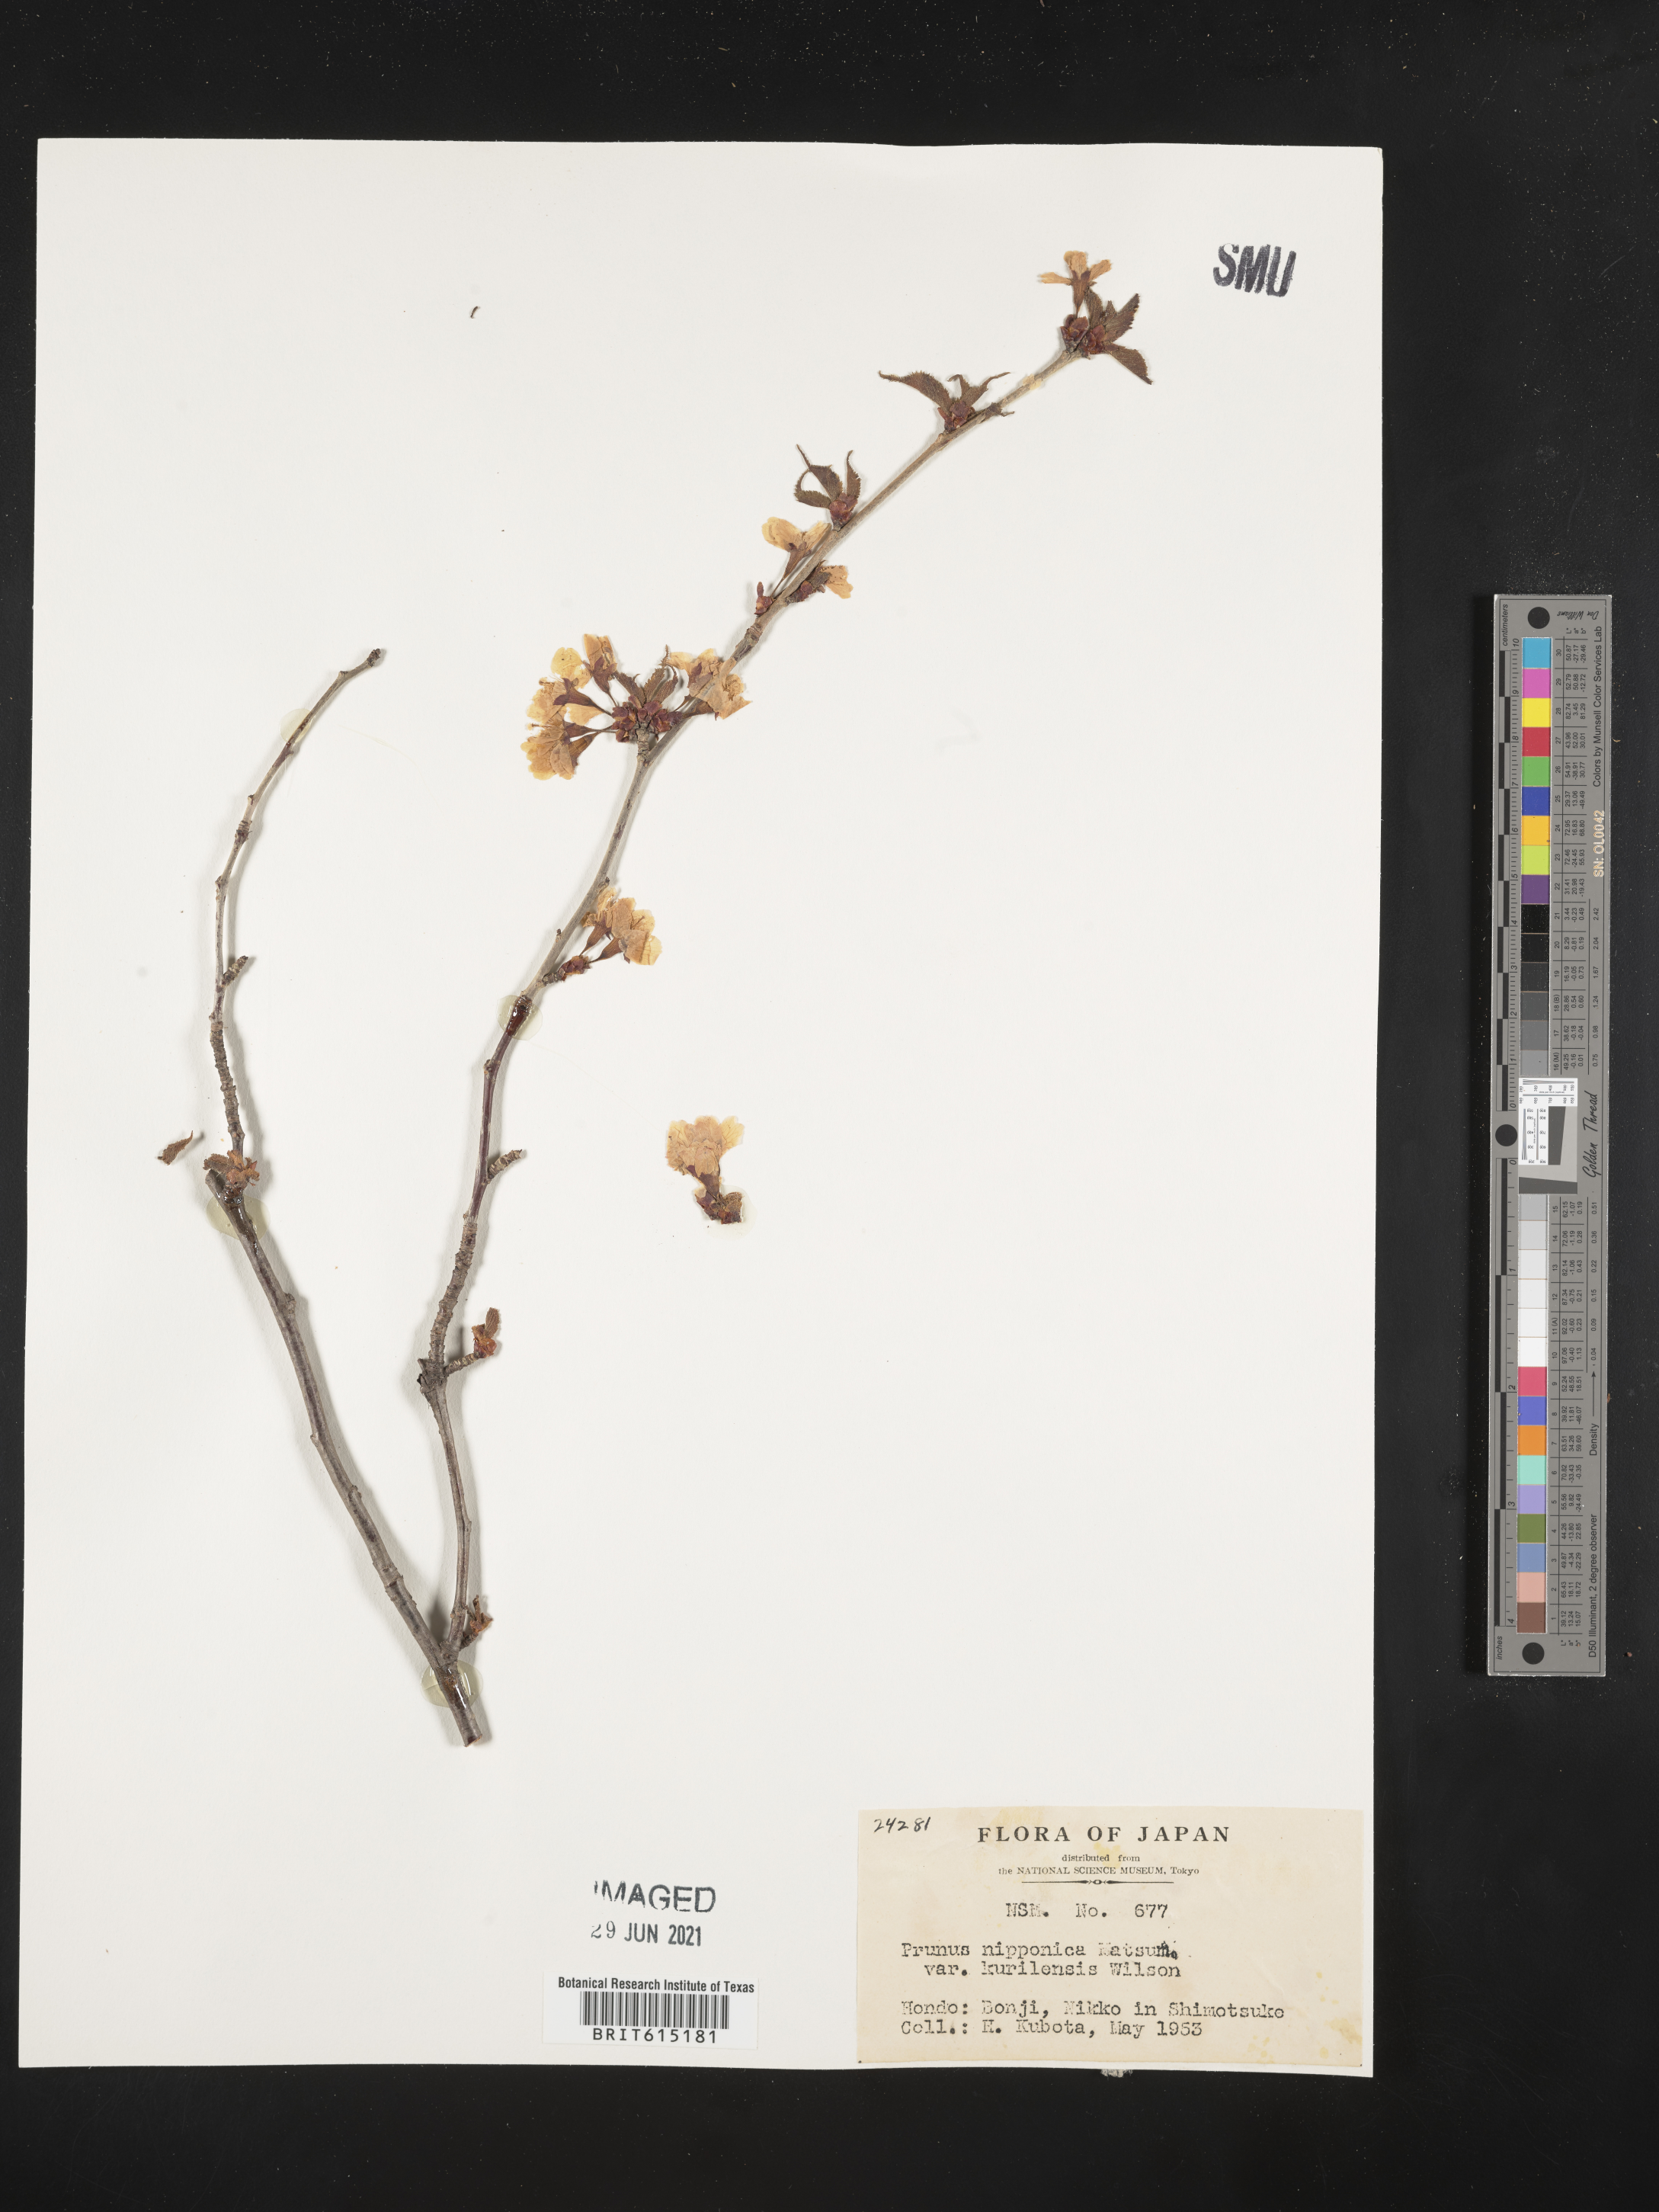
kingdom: Plantae
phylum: Tracheophyta
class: Magnoliopsida
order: Rosales
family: Rosaceae
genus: Prunus
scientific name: Prunus nipponica
